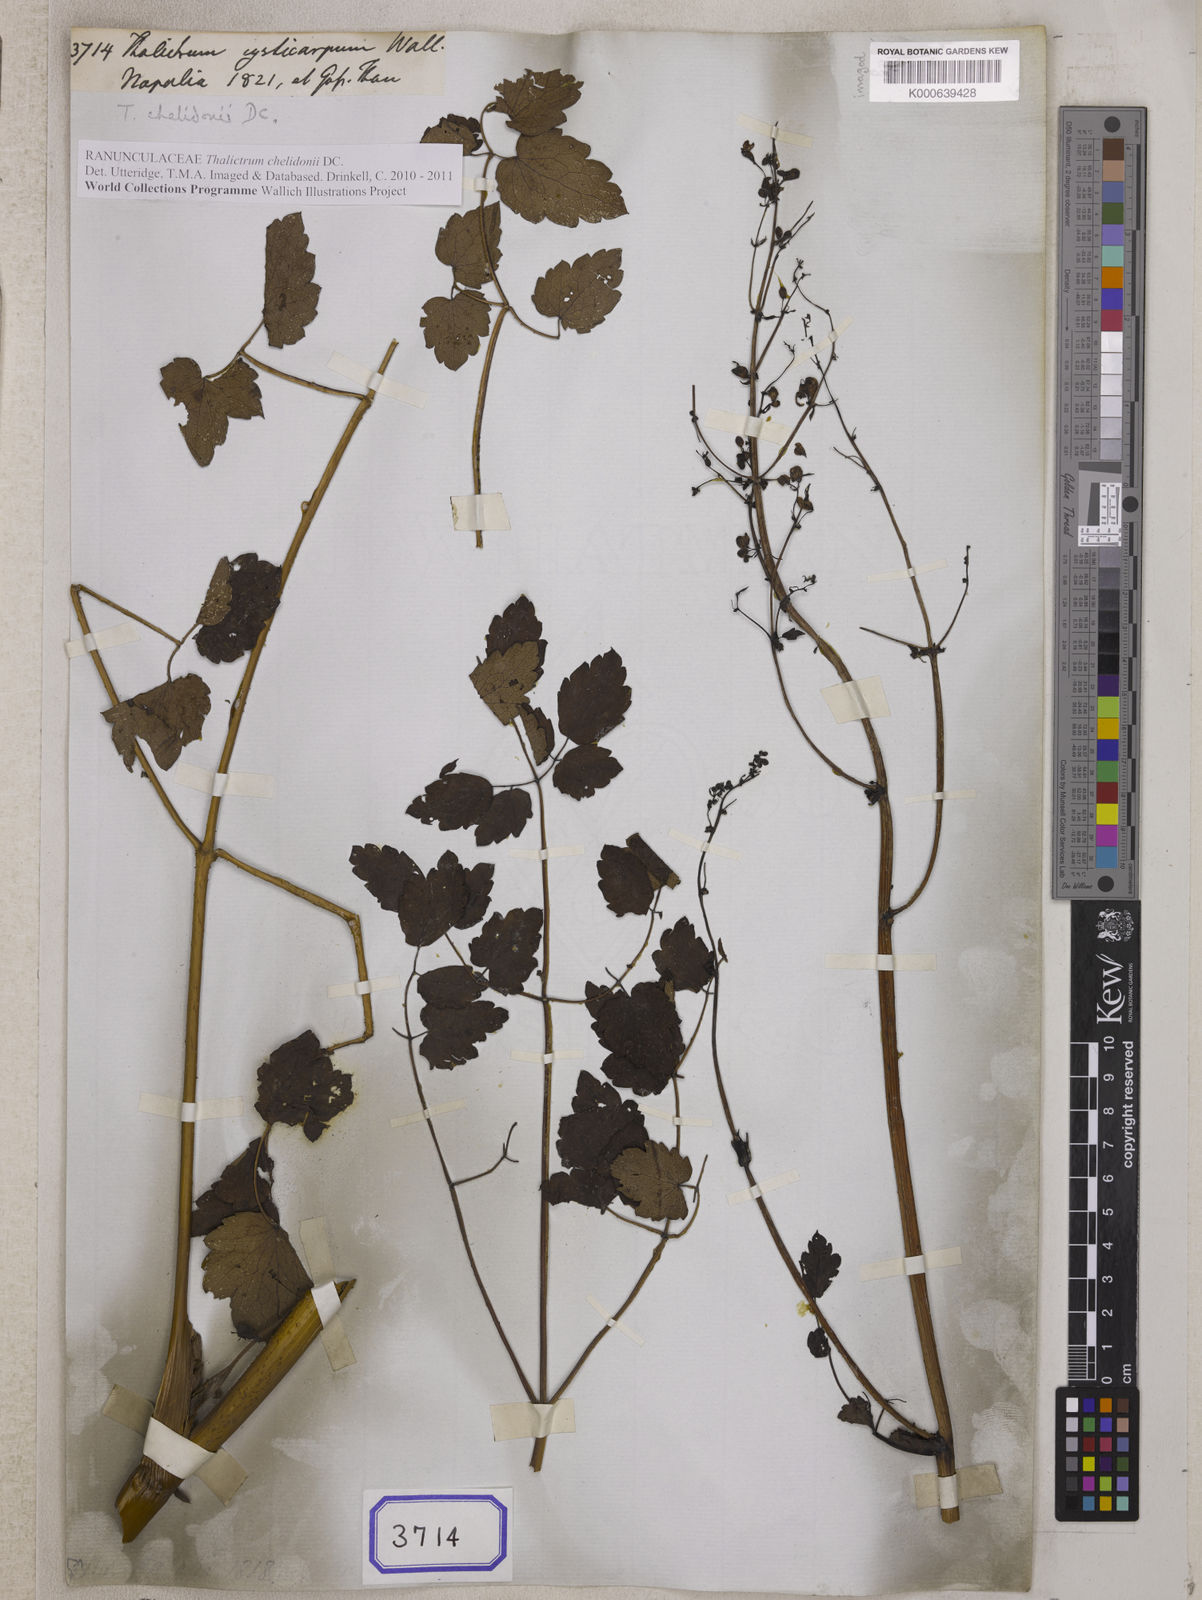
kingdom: Plantae
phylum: Tracheophyta
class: Magnoliopsida
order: Ranunculales
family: Ranunculaceae
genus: Thalictrum
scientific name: Thalictrum chelidonii
